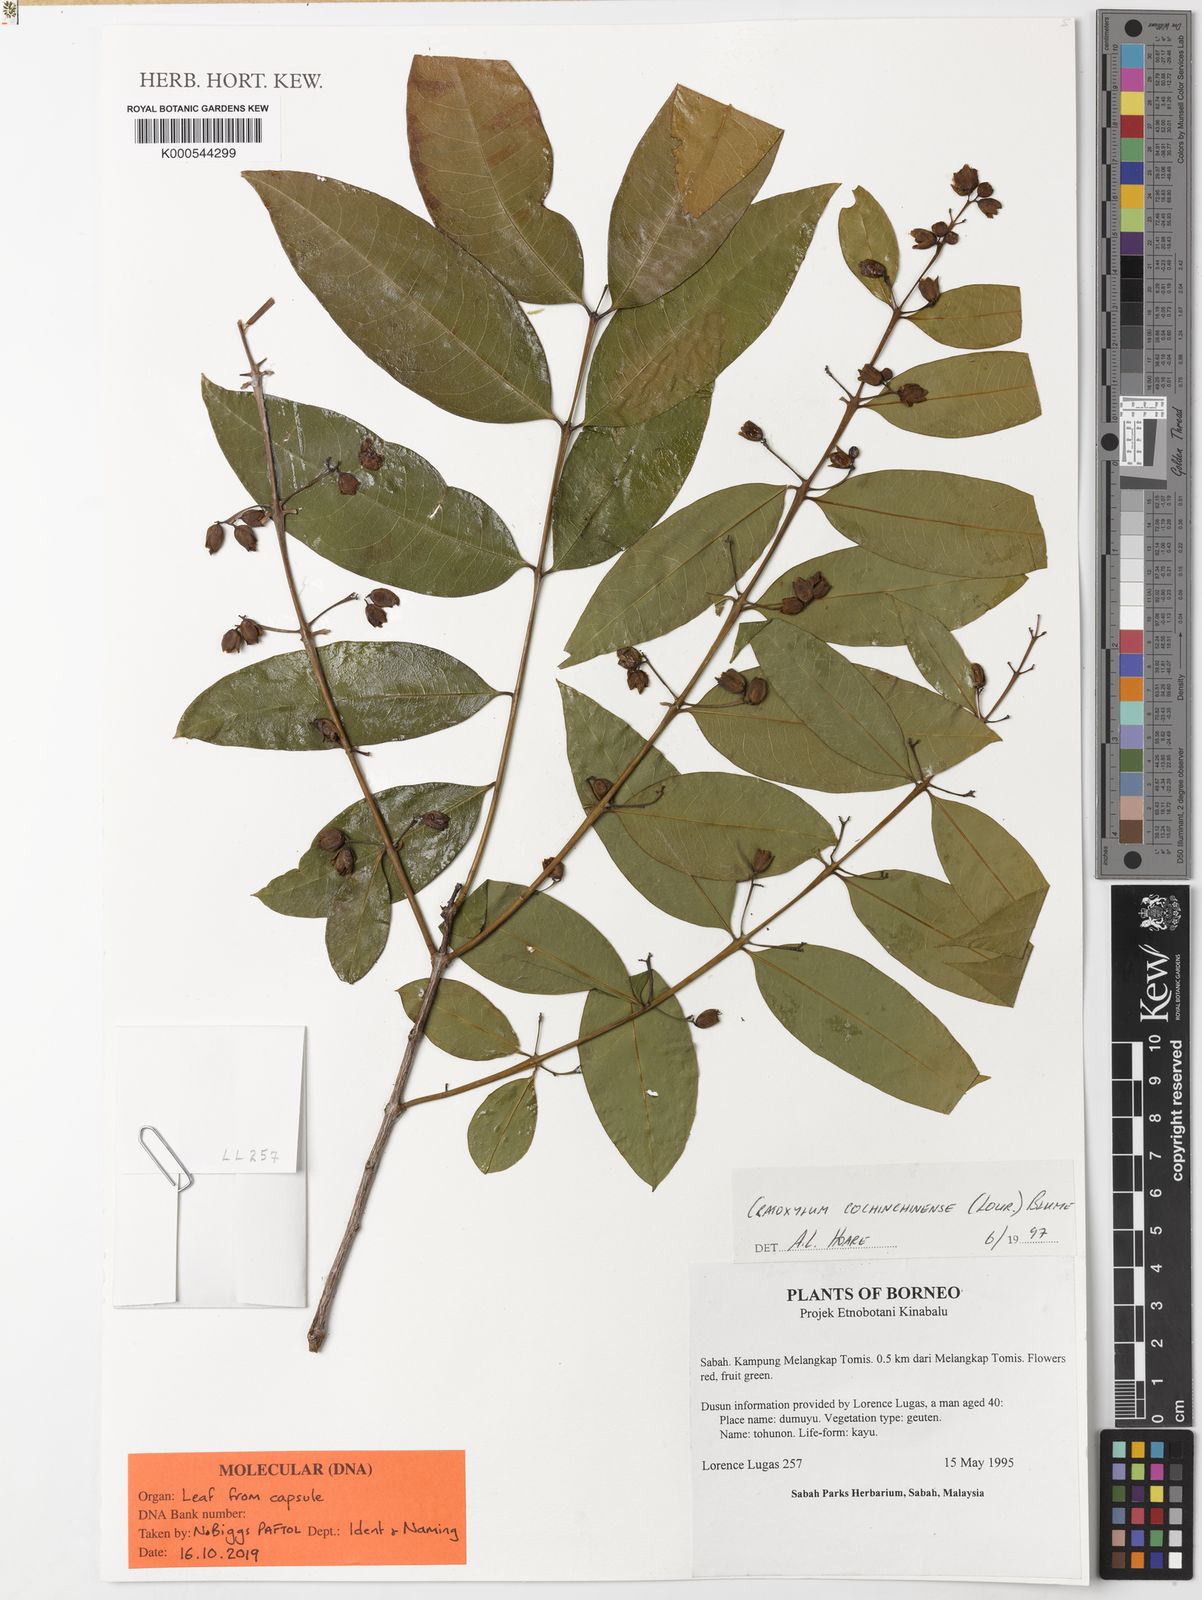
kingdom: Plantae
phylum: Tracheophyta
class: Magnoliopsida
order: Malpighiales
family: Hypericaceae
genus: Cratoxylum
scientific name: Cratoxylum cochinchinense
